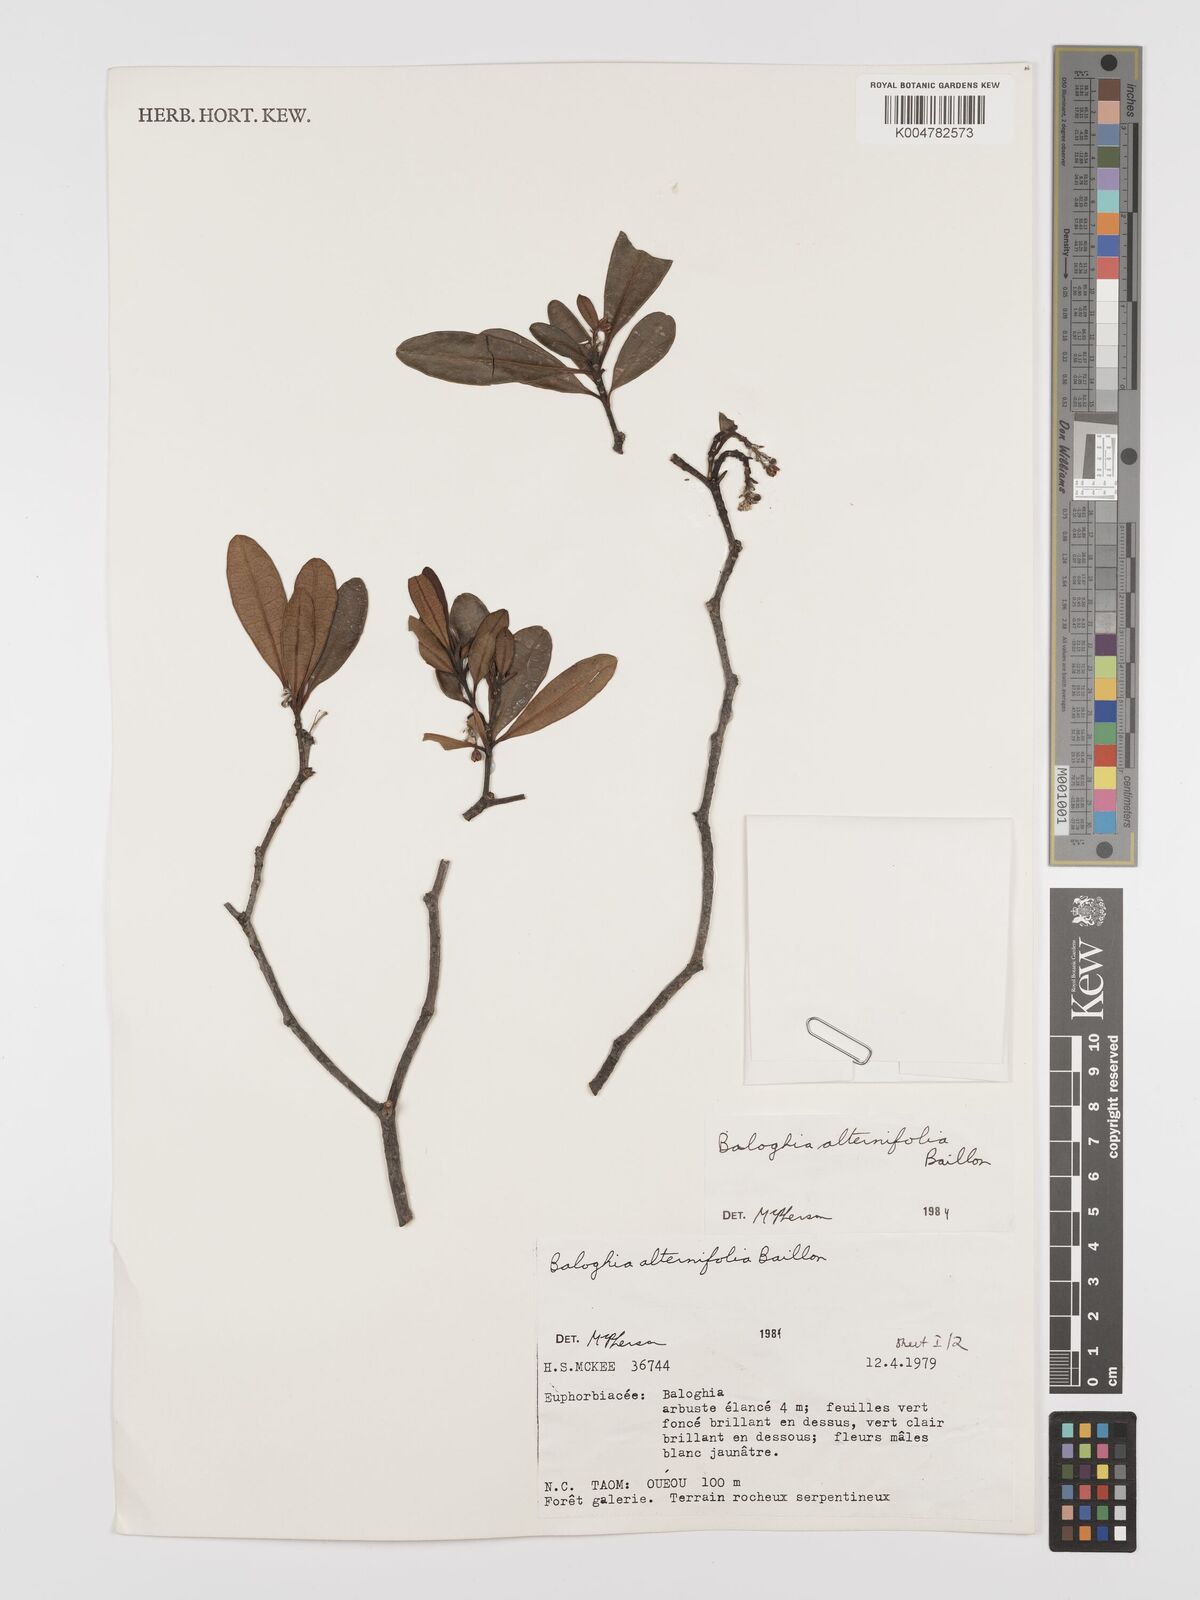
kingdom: Plantae
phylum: Tracheophyta
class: Magnoliopsida
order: Malpighiales
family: Euphorbiaceae
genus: Baloghia
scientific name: Baloghia alternifolia
